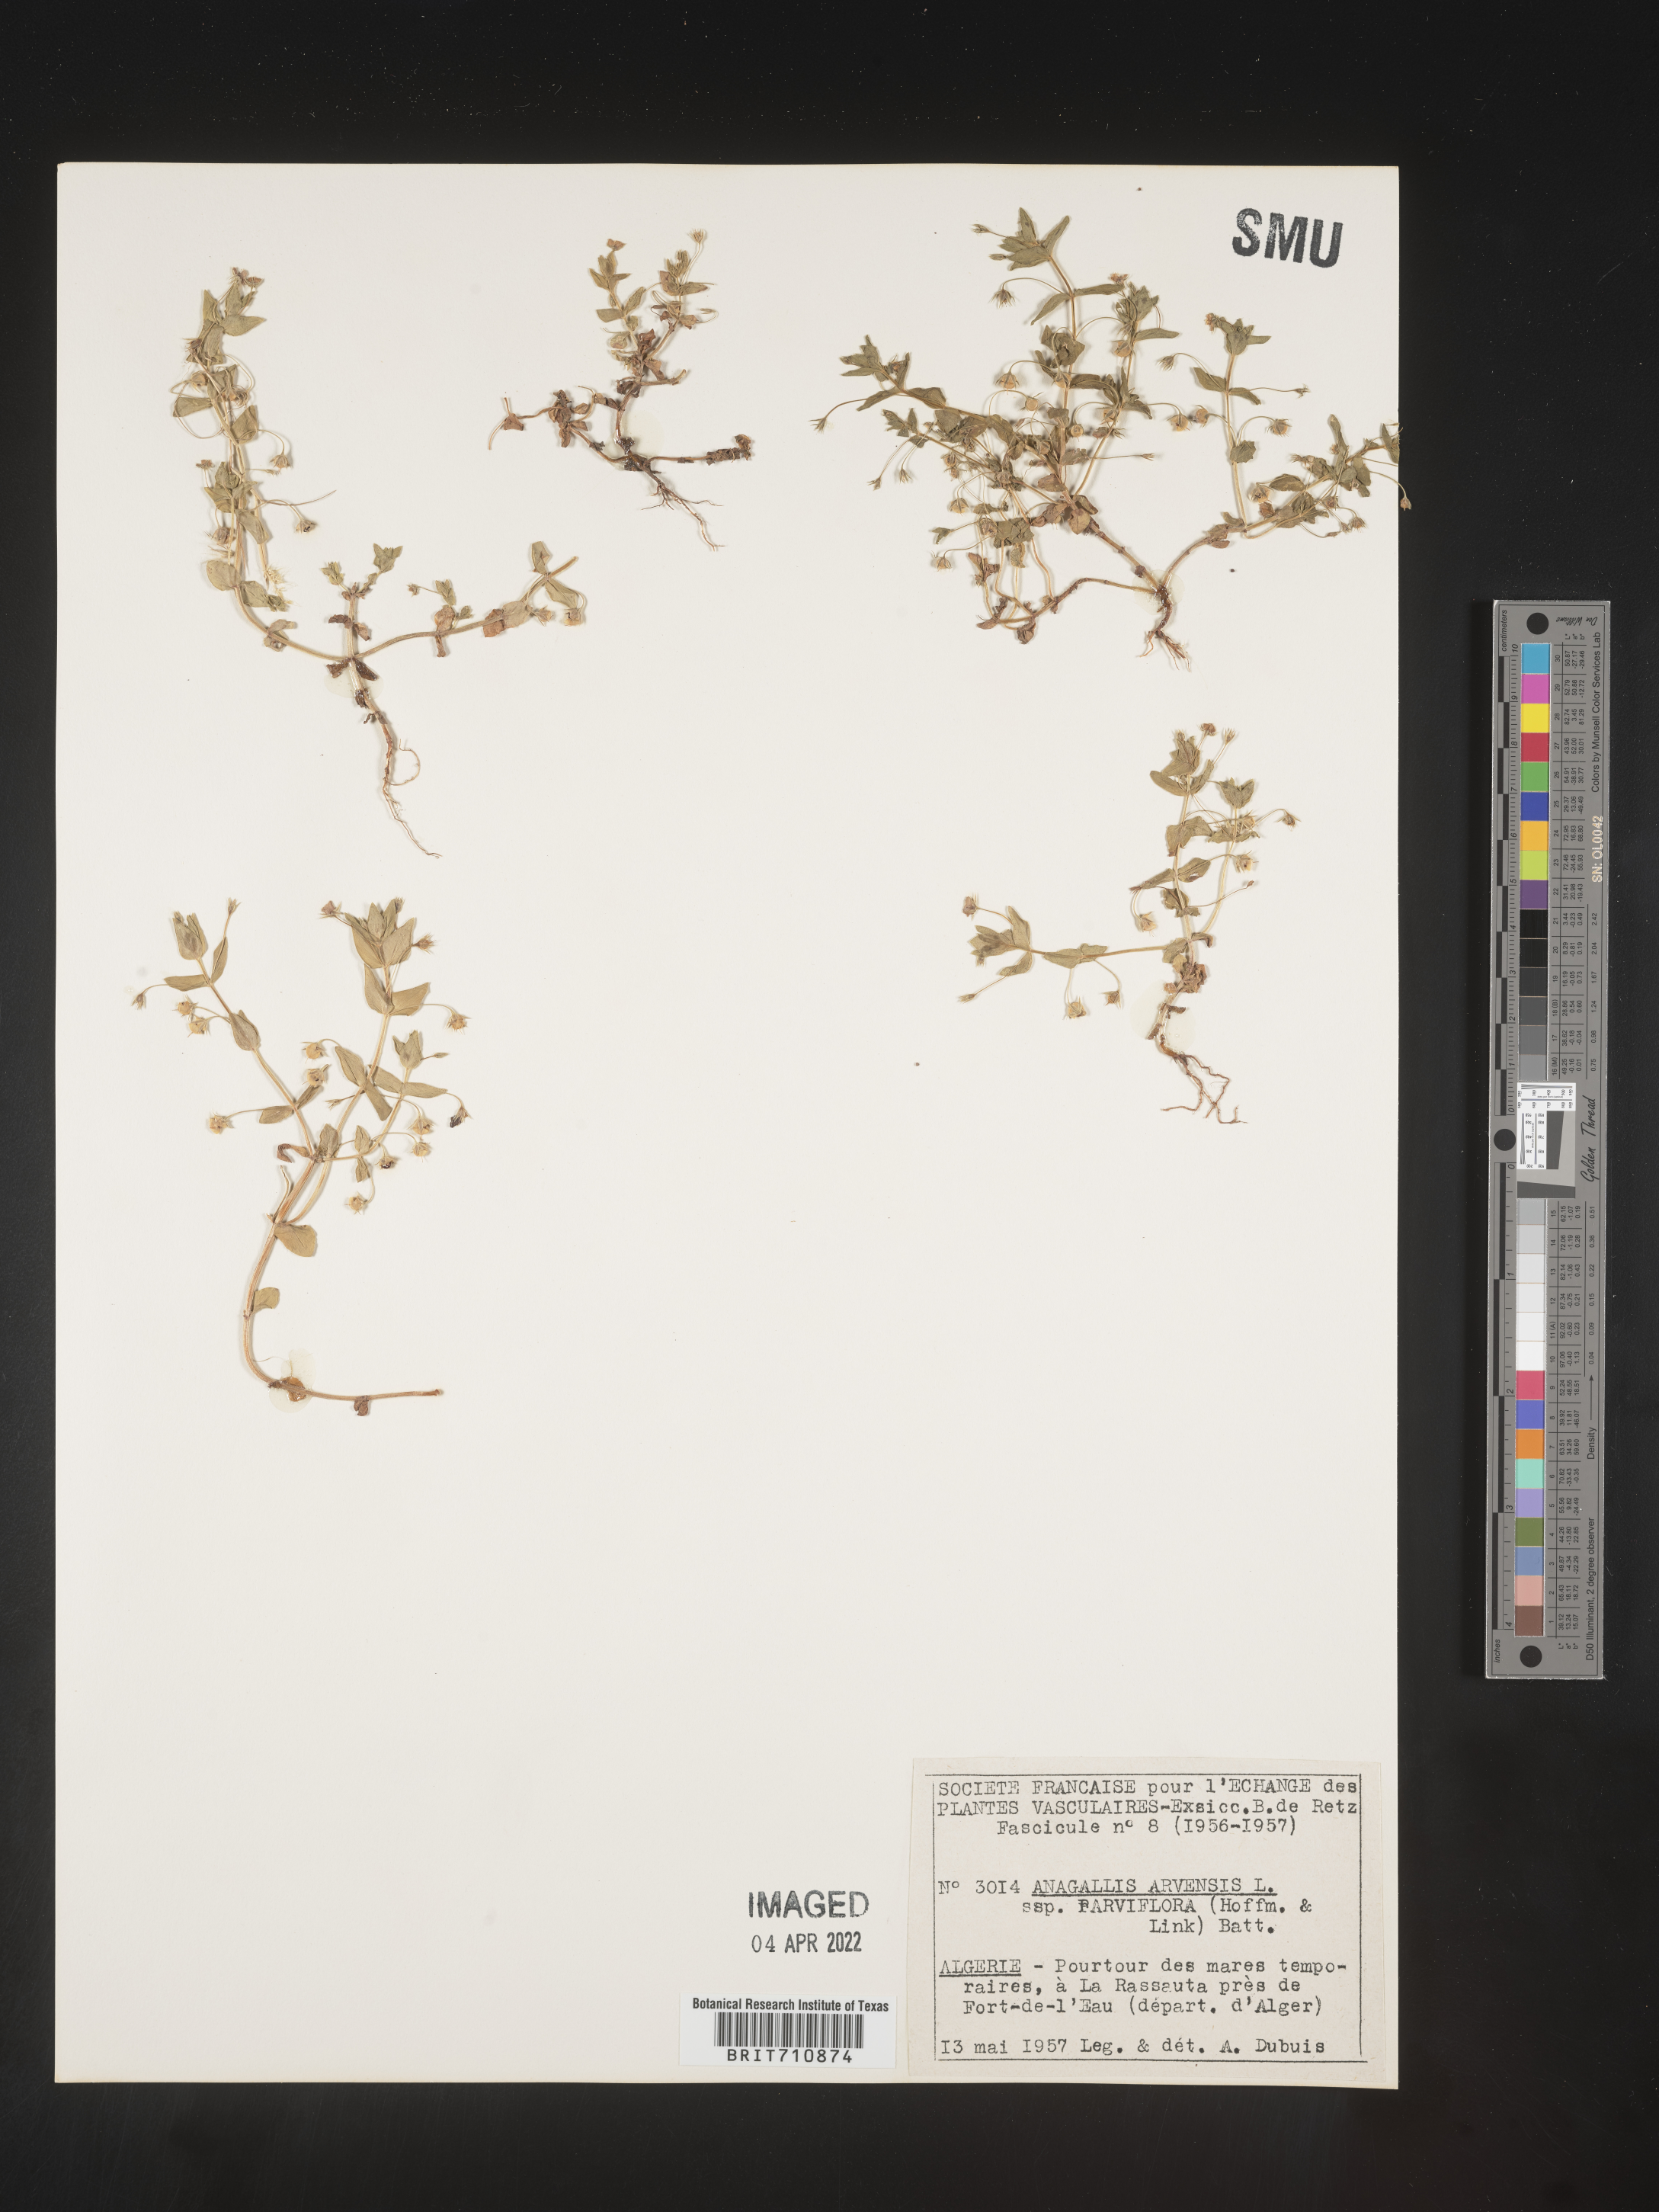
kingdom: Plantae
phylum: Tracheophyta
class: Magnoliopsida
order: Ericales
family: Primulaceae
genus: Lysimachia
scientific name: Lysimachia Anagallis spec
